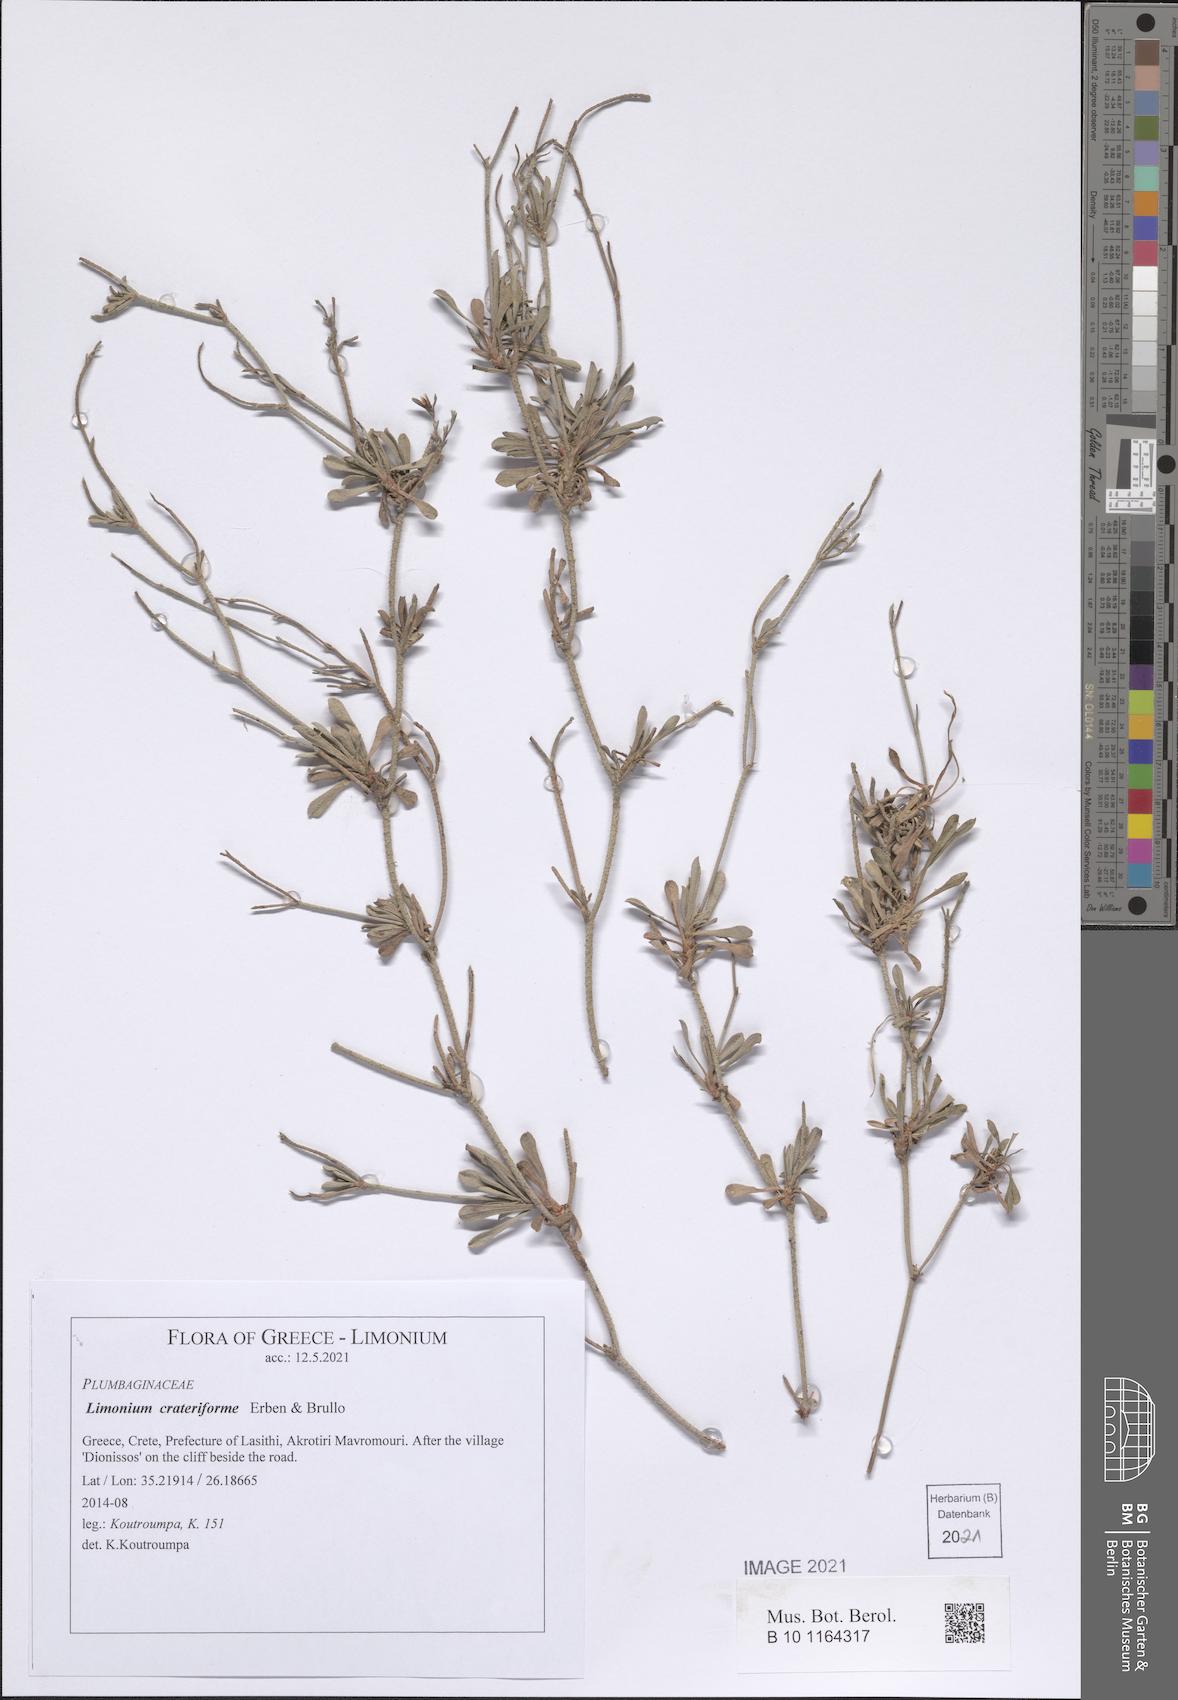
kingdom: Plantae
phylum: Tracheophyta
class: Magnoliopsida
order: Caryophyllales
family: Plumbaginaceae
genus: Limonium
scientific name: Limonium crateriforme
